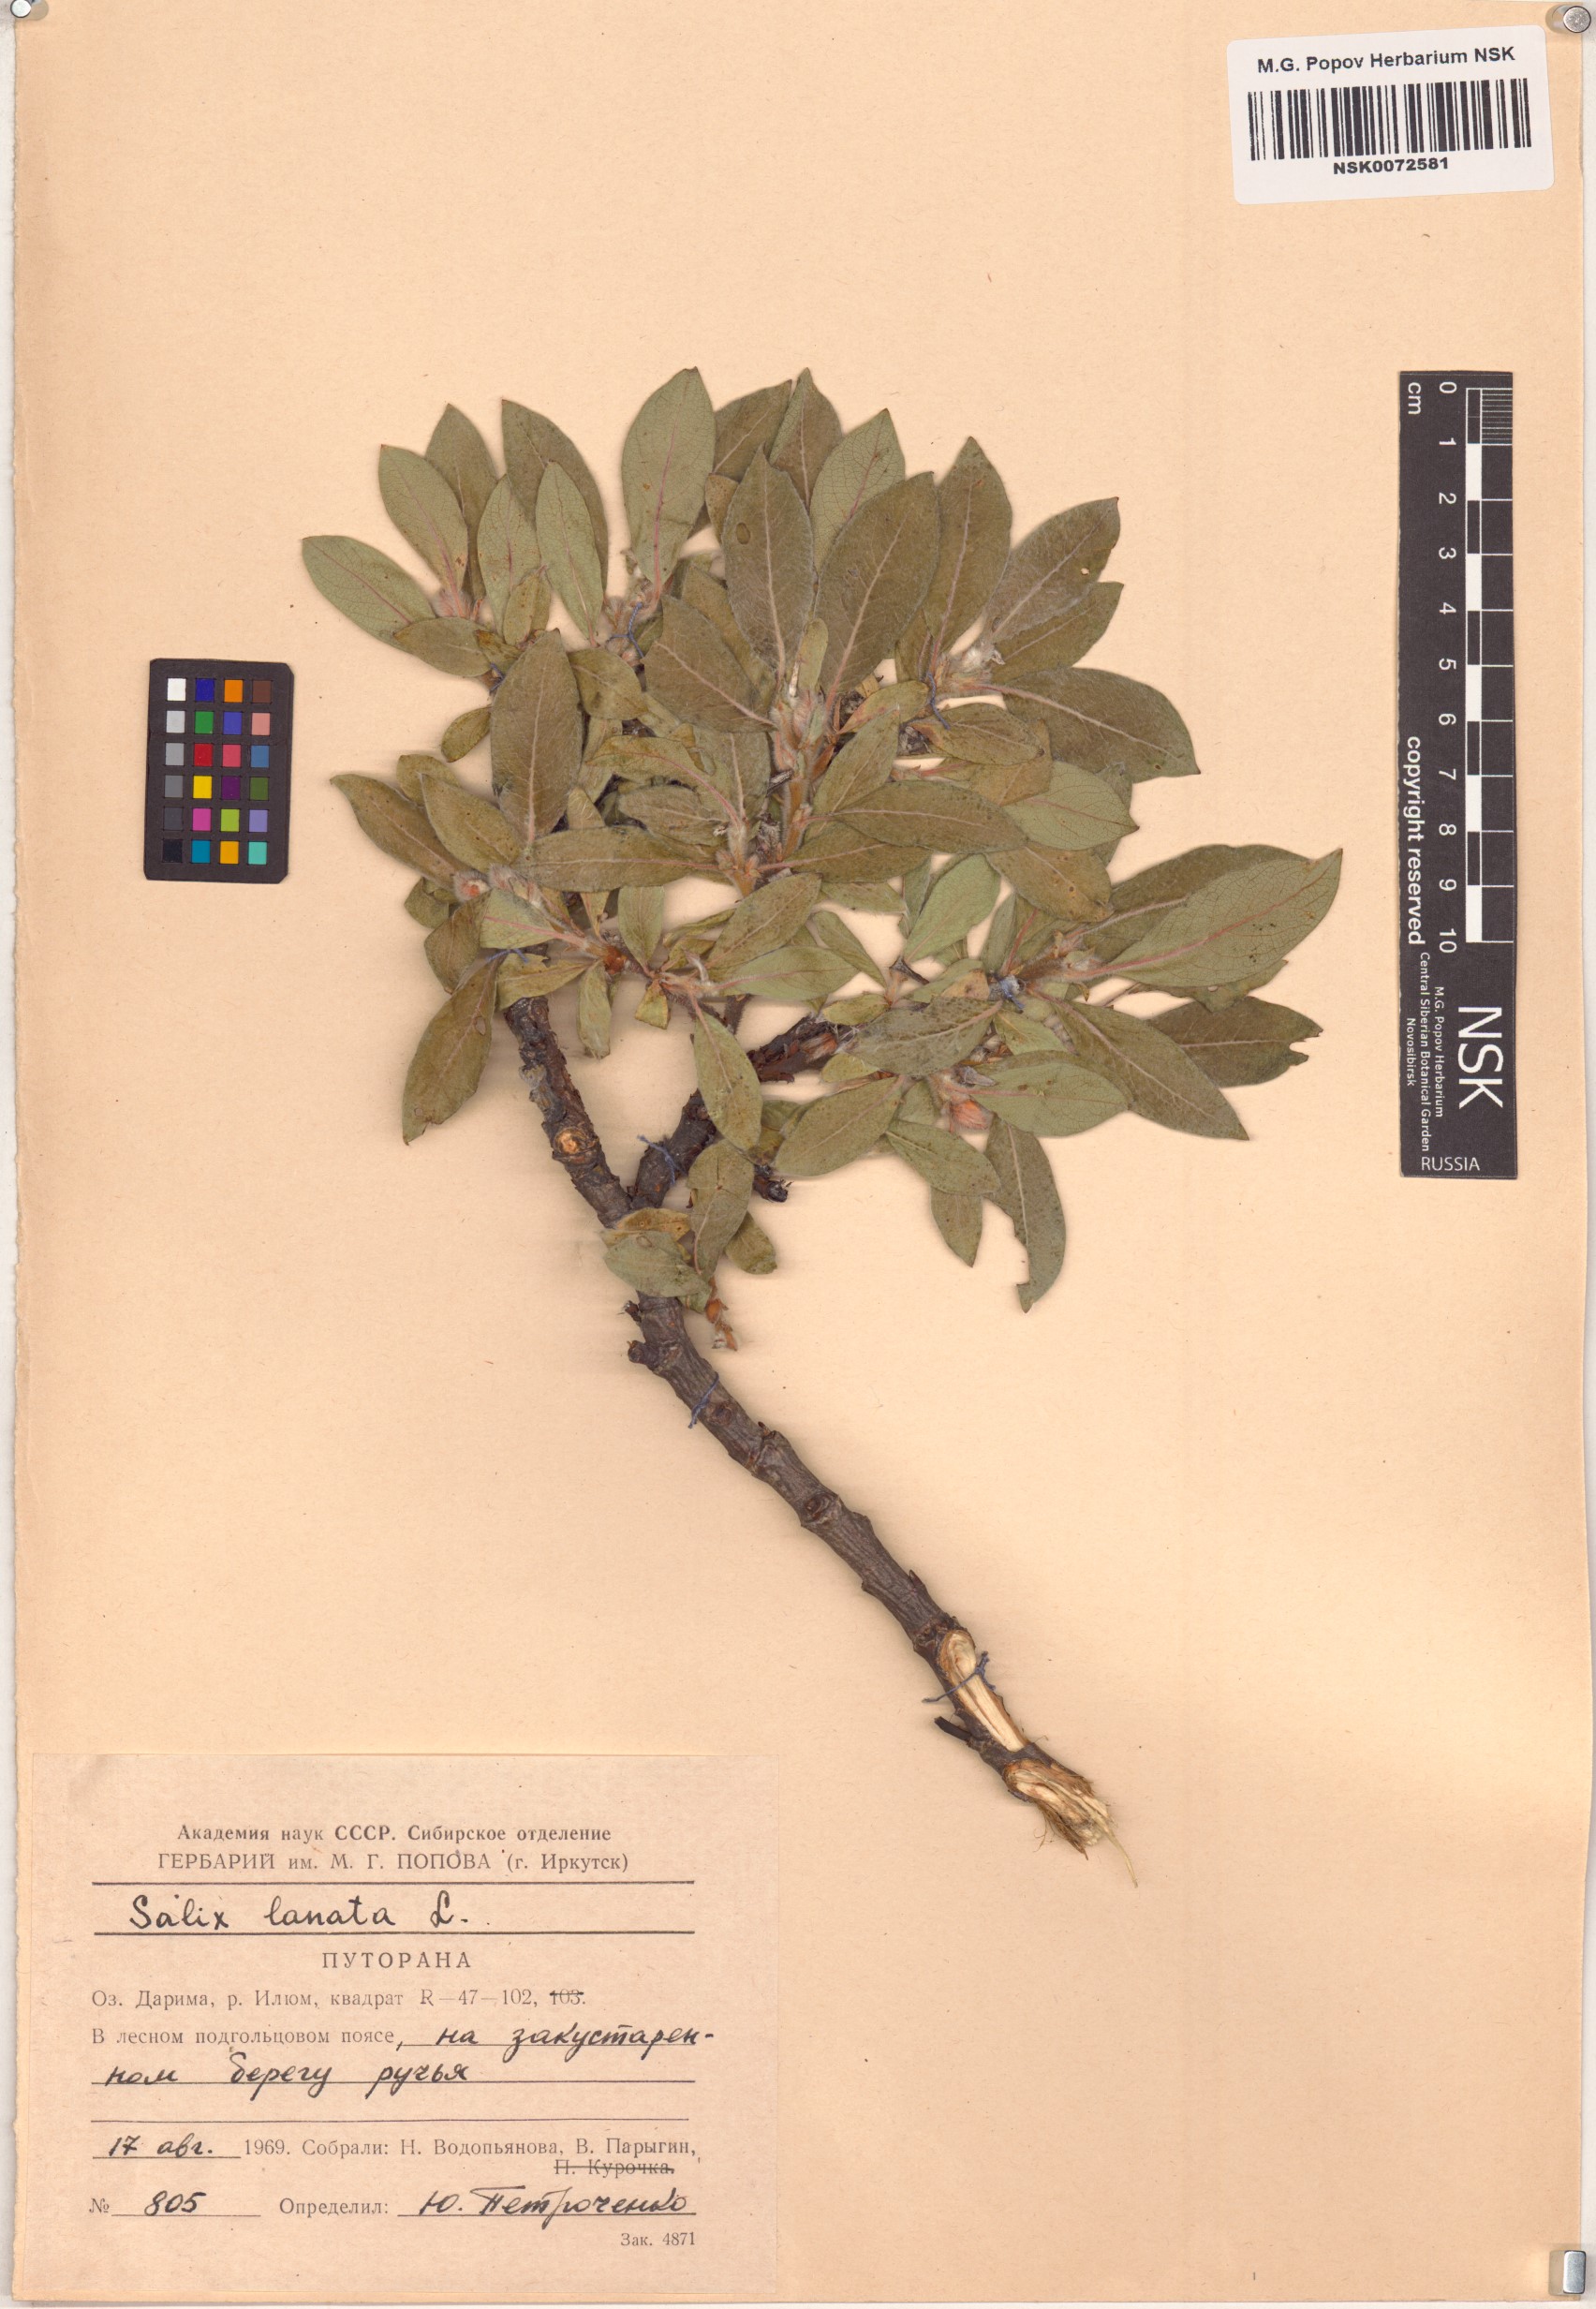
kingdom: Plantae
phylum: Tracheophyta
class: Magnoliopsida
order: Malpighiales
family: Salicaceae
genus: Salix
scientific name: Salix lanata
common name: Woolly willow
